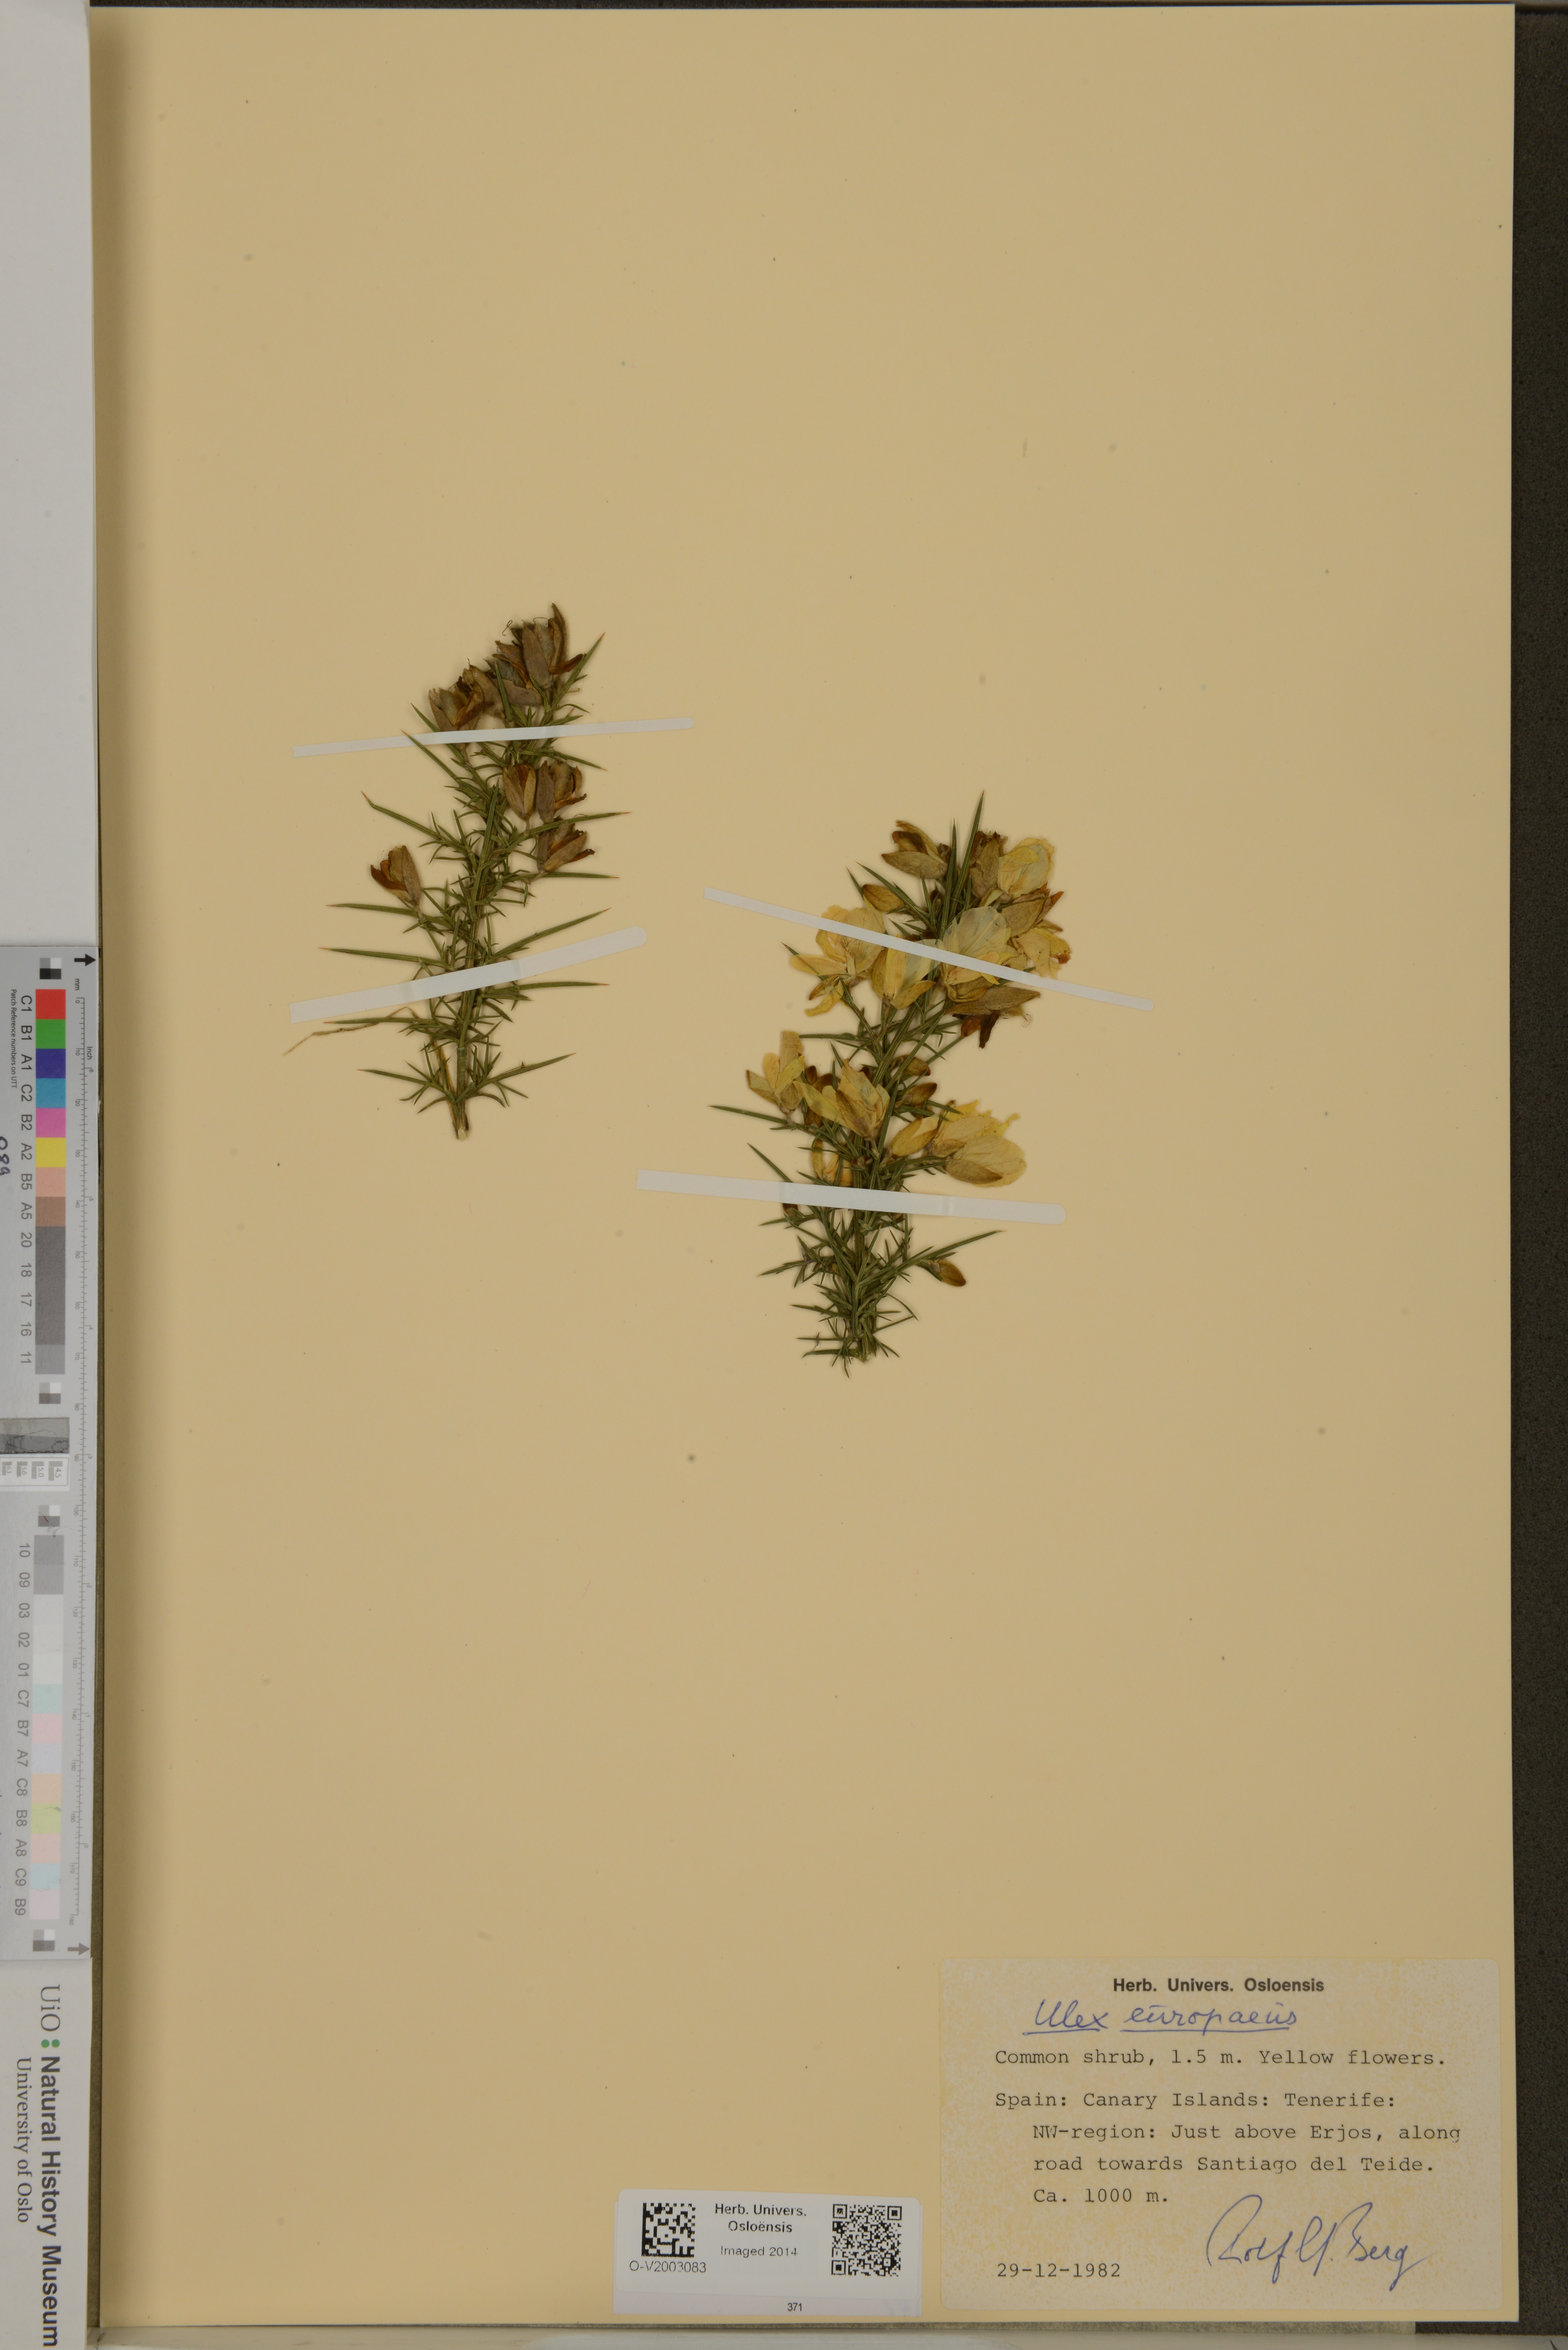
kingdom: Plantae
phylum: Tracheophyta
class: Magnoliopsida
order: Fabales
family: Fabaceae
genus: Ulex
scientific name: Ulex europaeus
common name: Common gorse
